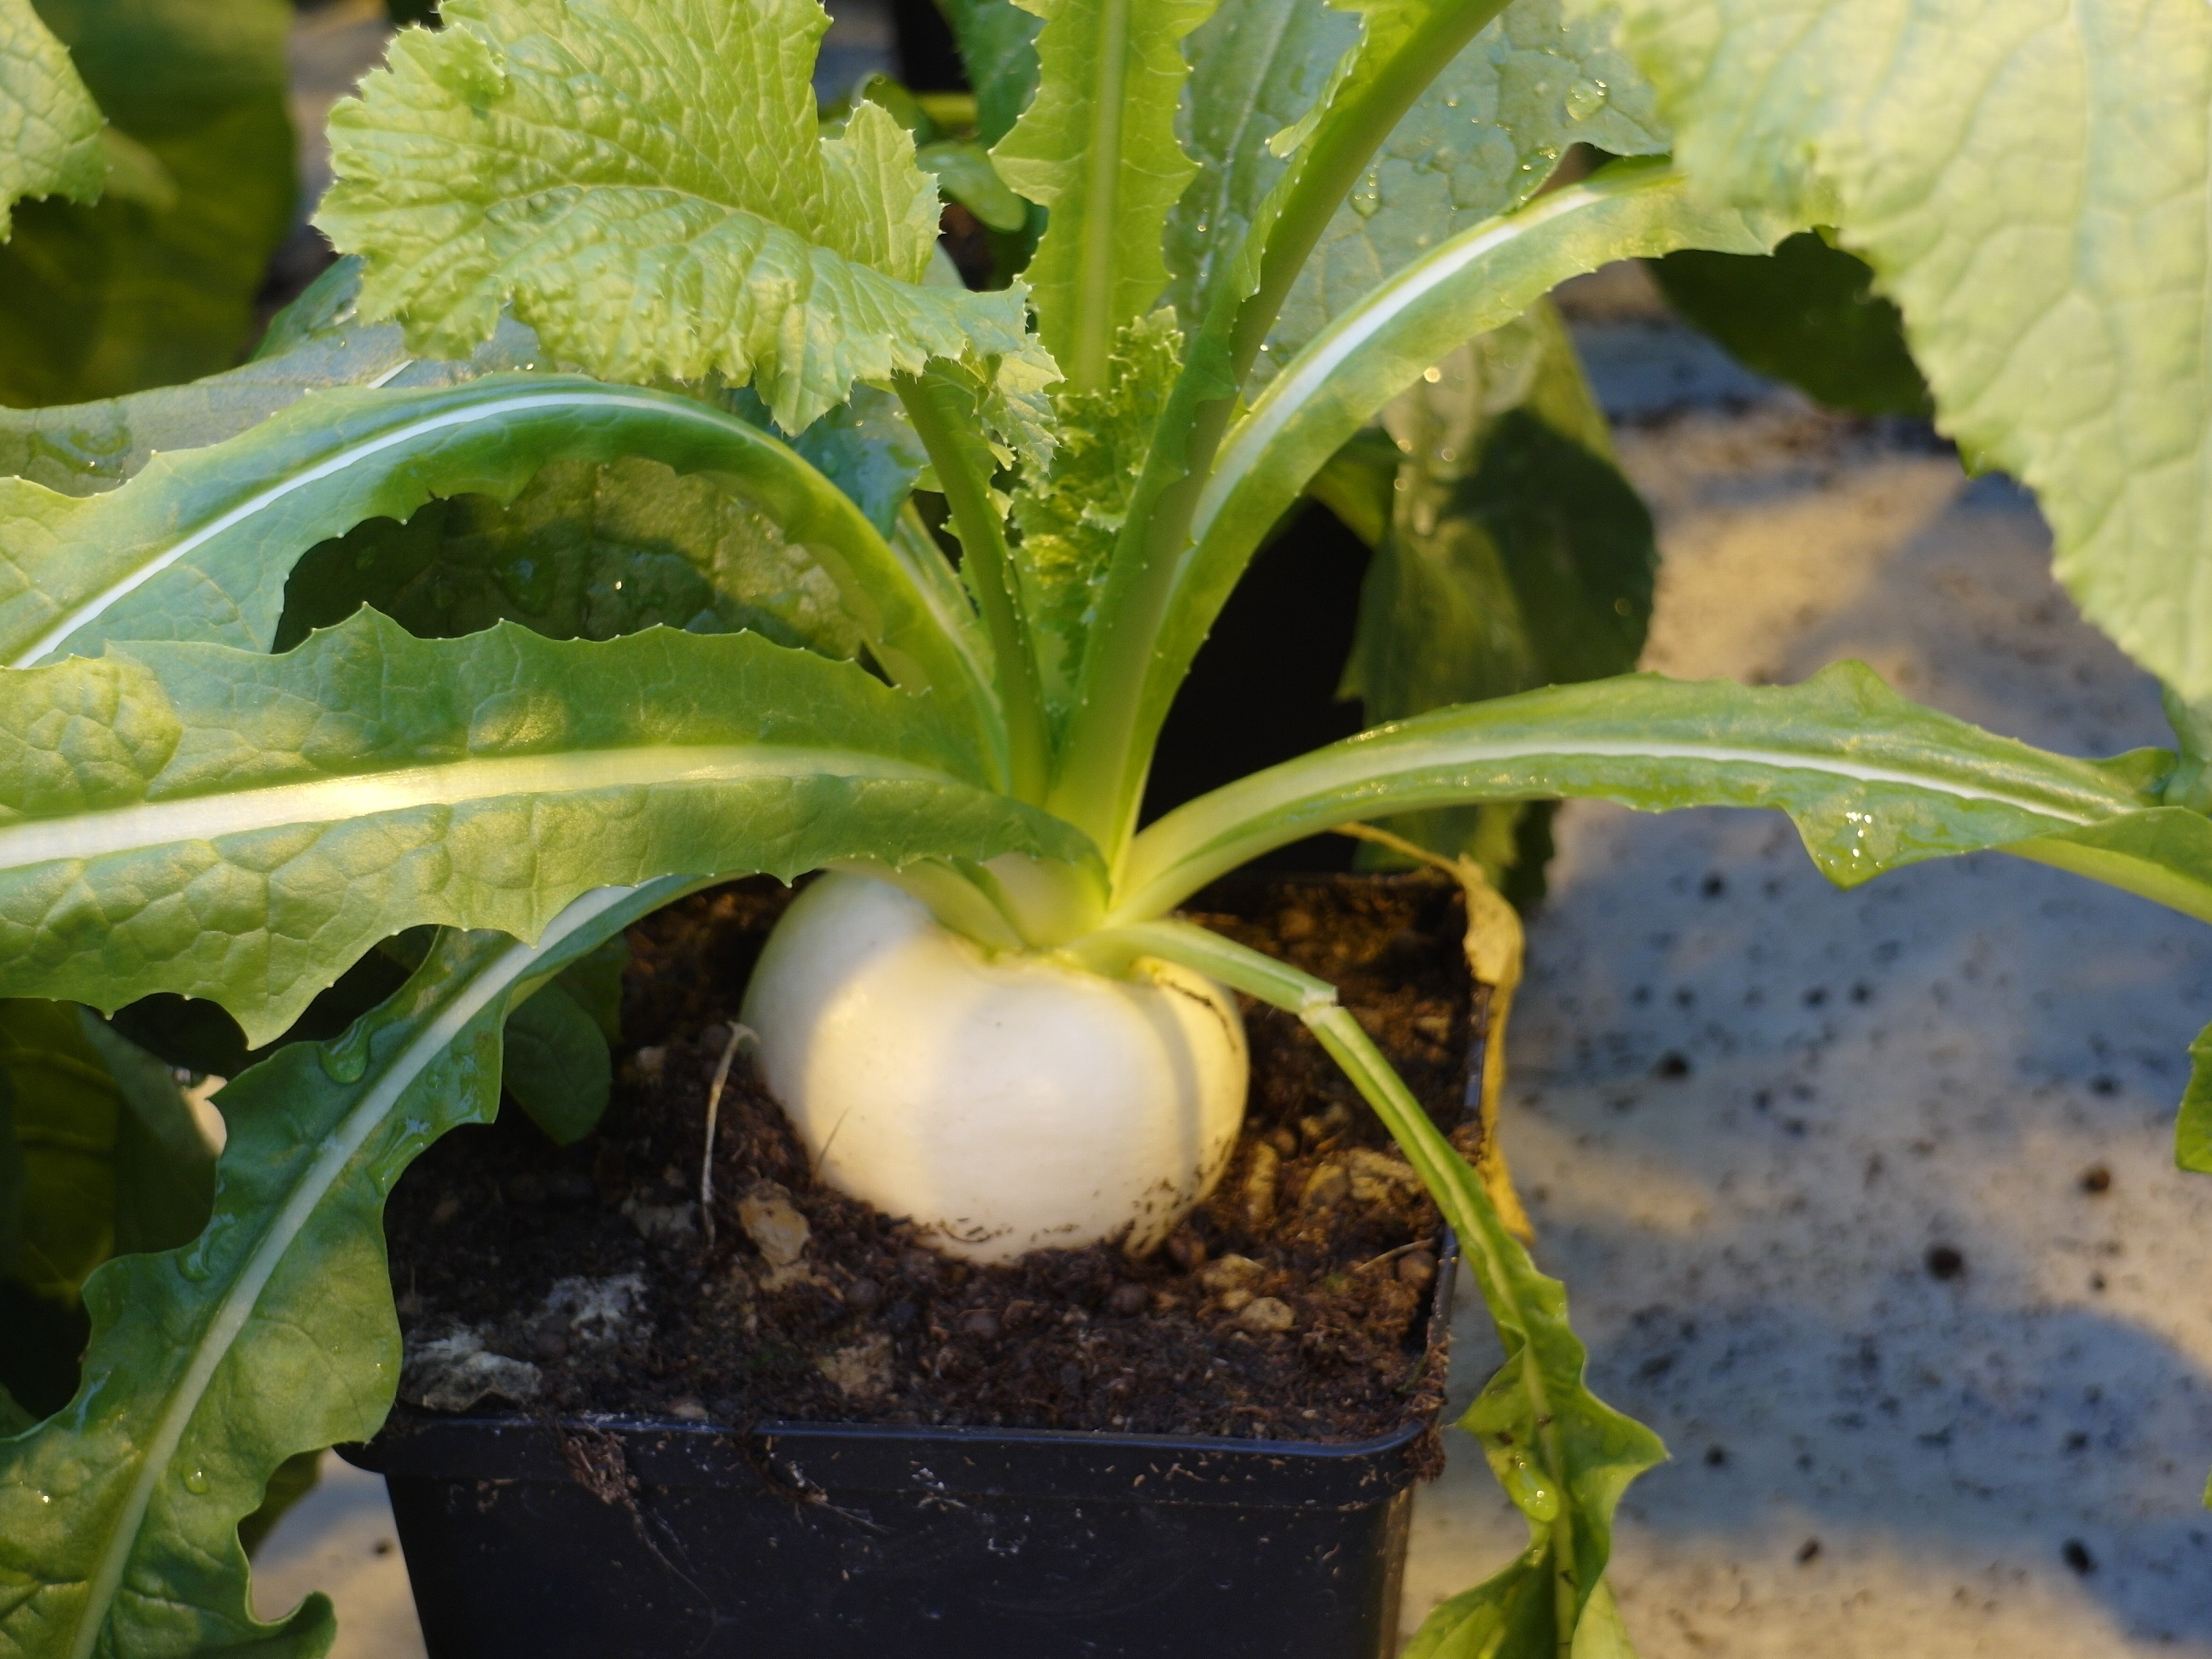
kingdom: Plantae
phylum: Tracheophyta
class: Magnoliopsida
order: Brassicales
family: Brassicaceae
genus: Brassica
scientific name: Brassica rapa
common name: Field mustard
